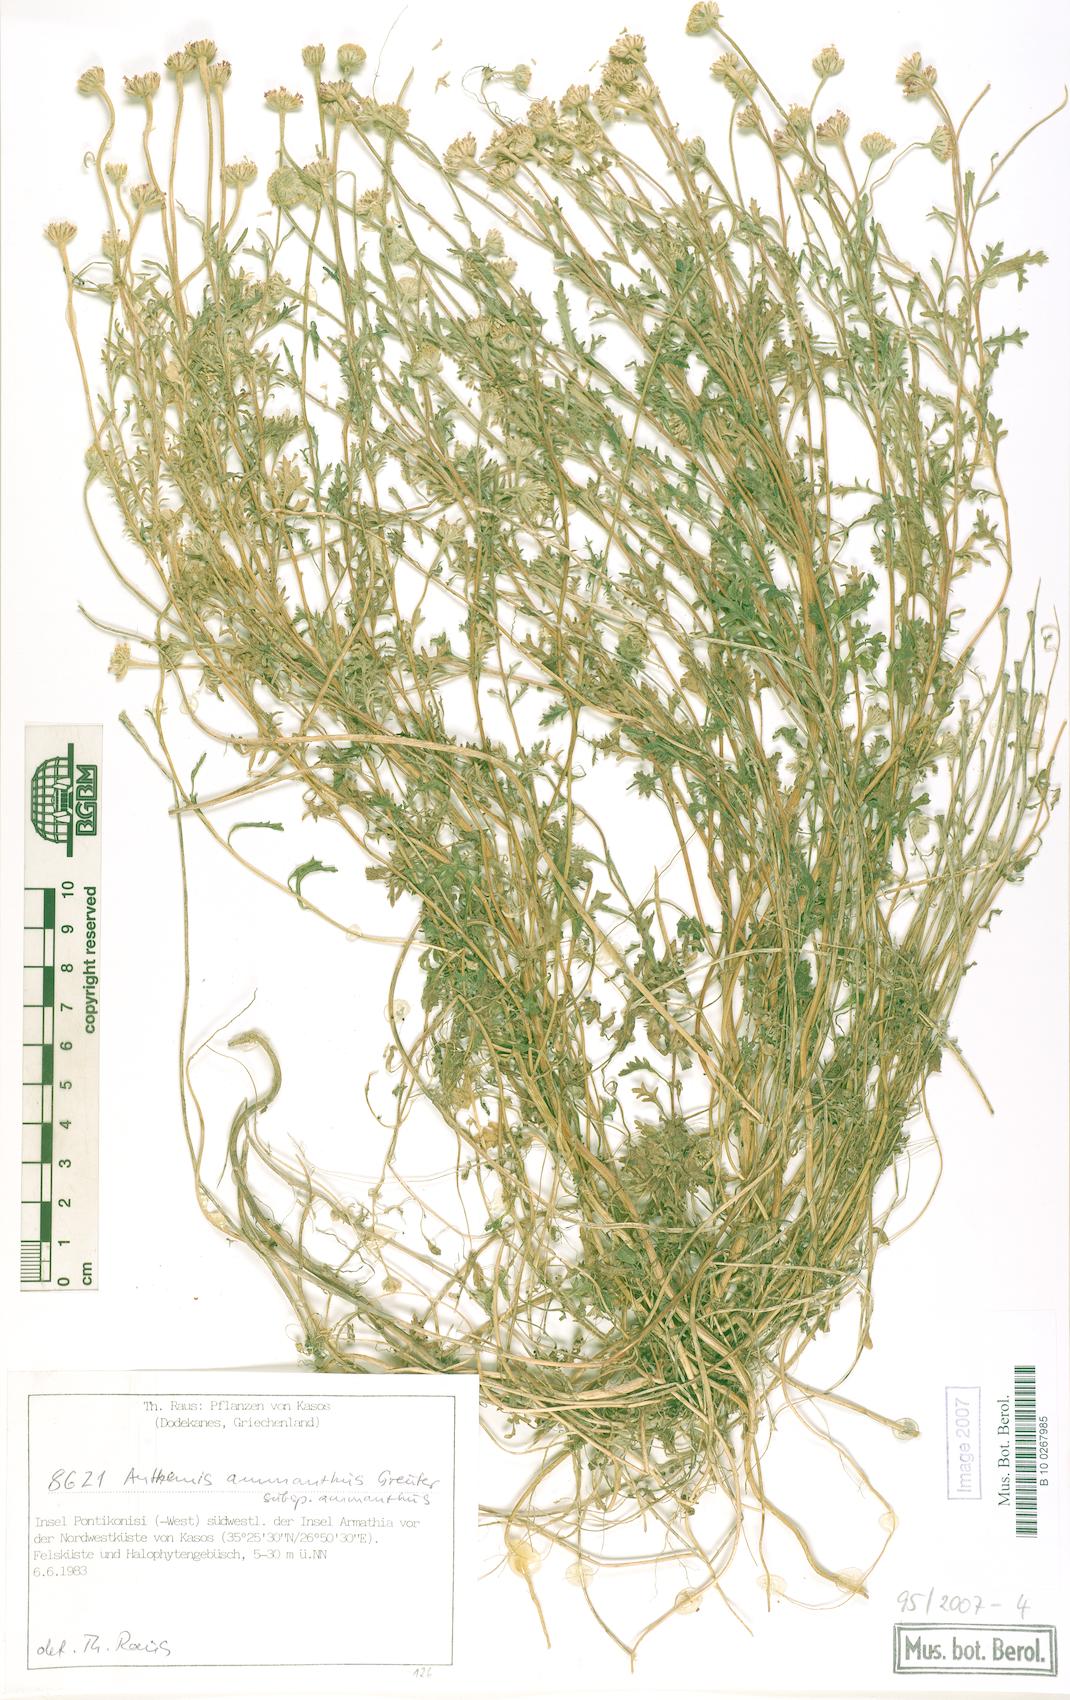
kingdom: Plantae
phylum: Tracheophyta
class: Magnoliopsida
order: Asterales
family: Asteraceae
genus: Anthemis
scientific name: Anthemis ammanthus
